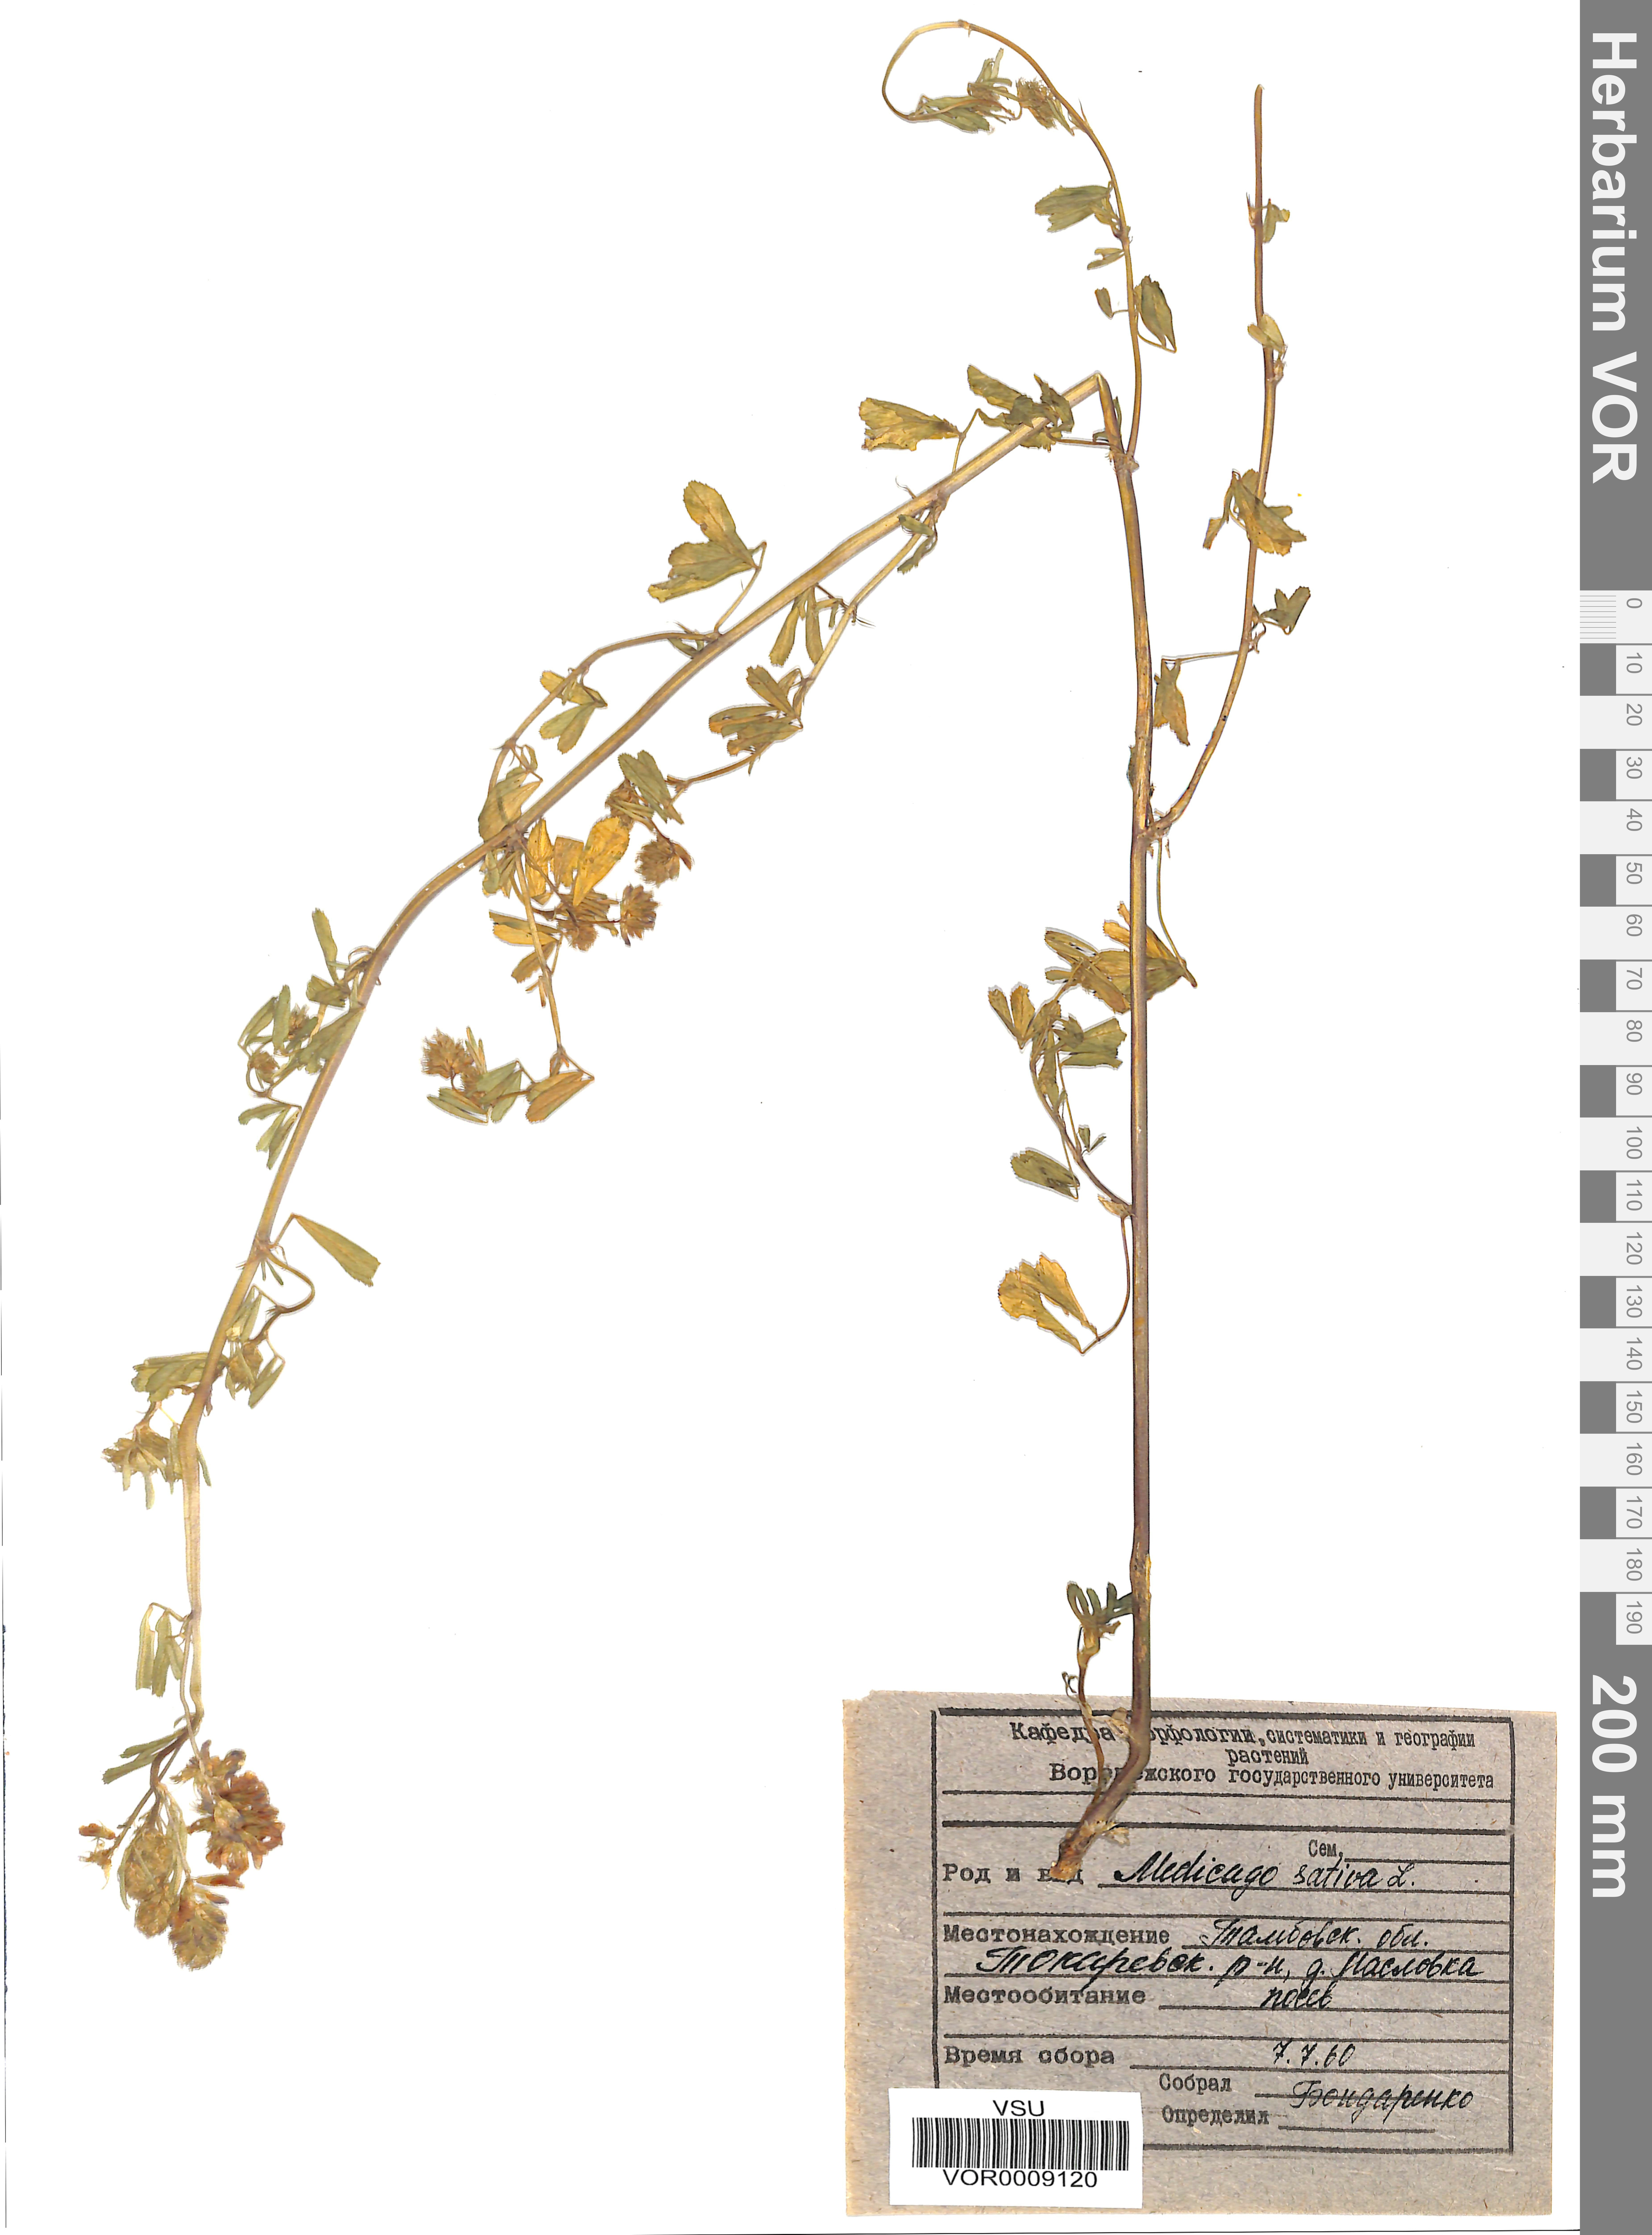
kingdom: Plantae
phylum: Tracheophyta
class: Magnoliopsida
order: Fabales
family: Fabaceae
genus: Medicago
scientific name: Medicago sativa
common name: Alfalfa
